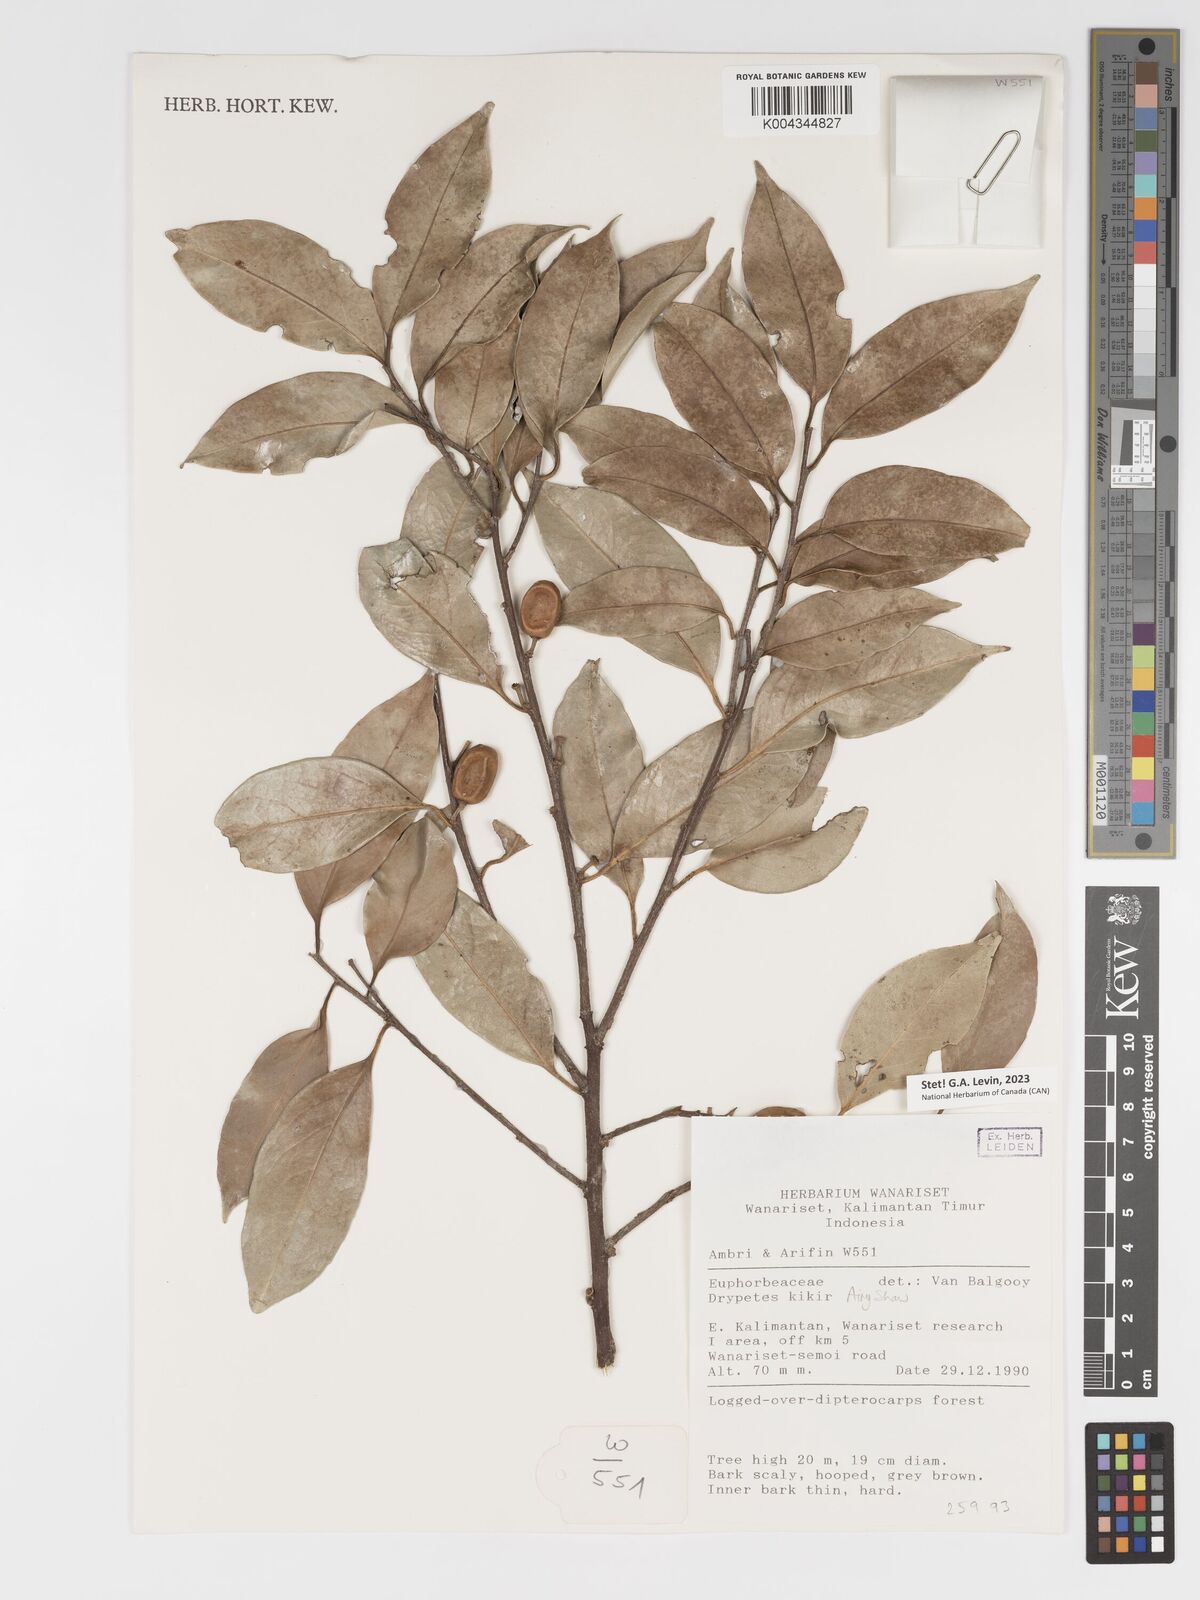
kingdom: Plantae
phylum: Tracheophyta
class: Magnoliopsida
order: Malpighiales
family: Putranjivaceae
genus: Drypetes
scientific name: Drypetes kikir
